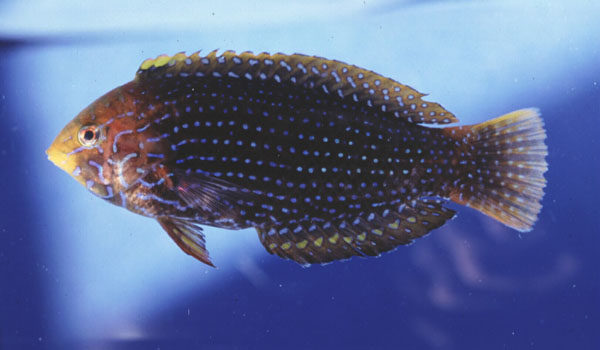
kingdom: Animalia
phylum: Chordata
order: Perciformes
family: Labridae
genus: Macropharyngodon
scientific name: Macropharyngodon cyanoguttatus
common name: Bluespotted wrasse
